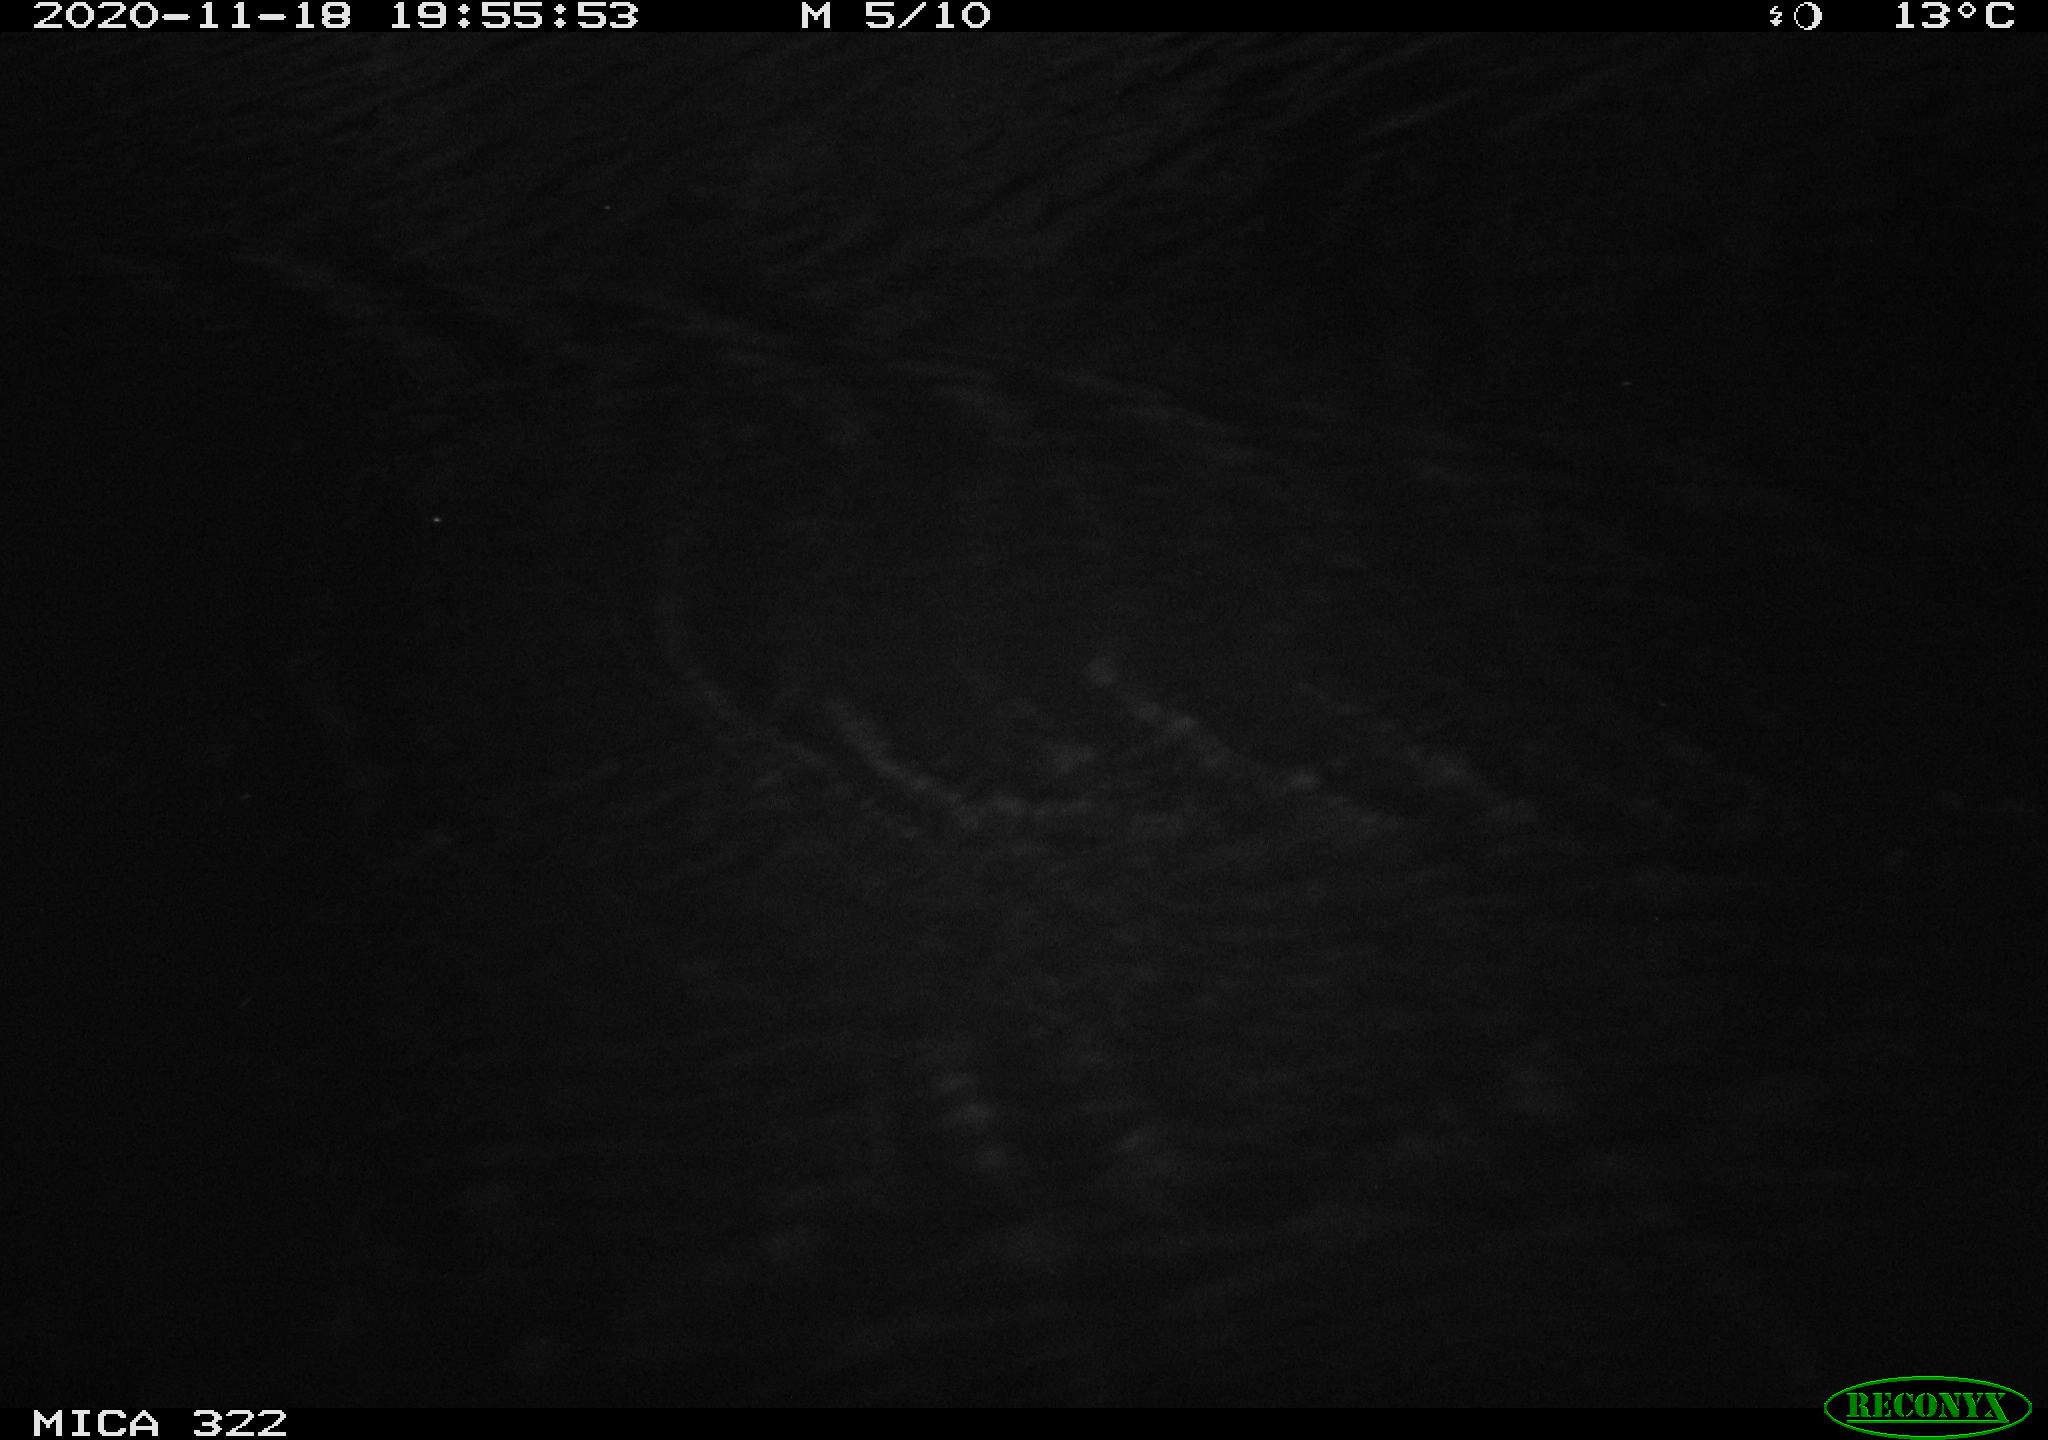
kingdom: Animalia
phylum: Chordata
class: Mammalia
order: Rodentia
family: Muridae
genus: Rattus
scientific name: Rattus norvegicus
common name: Brown rat
